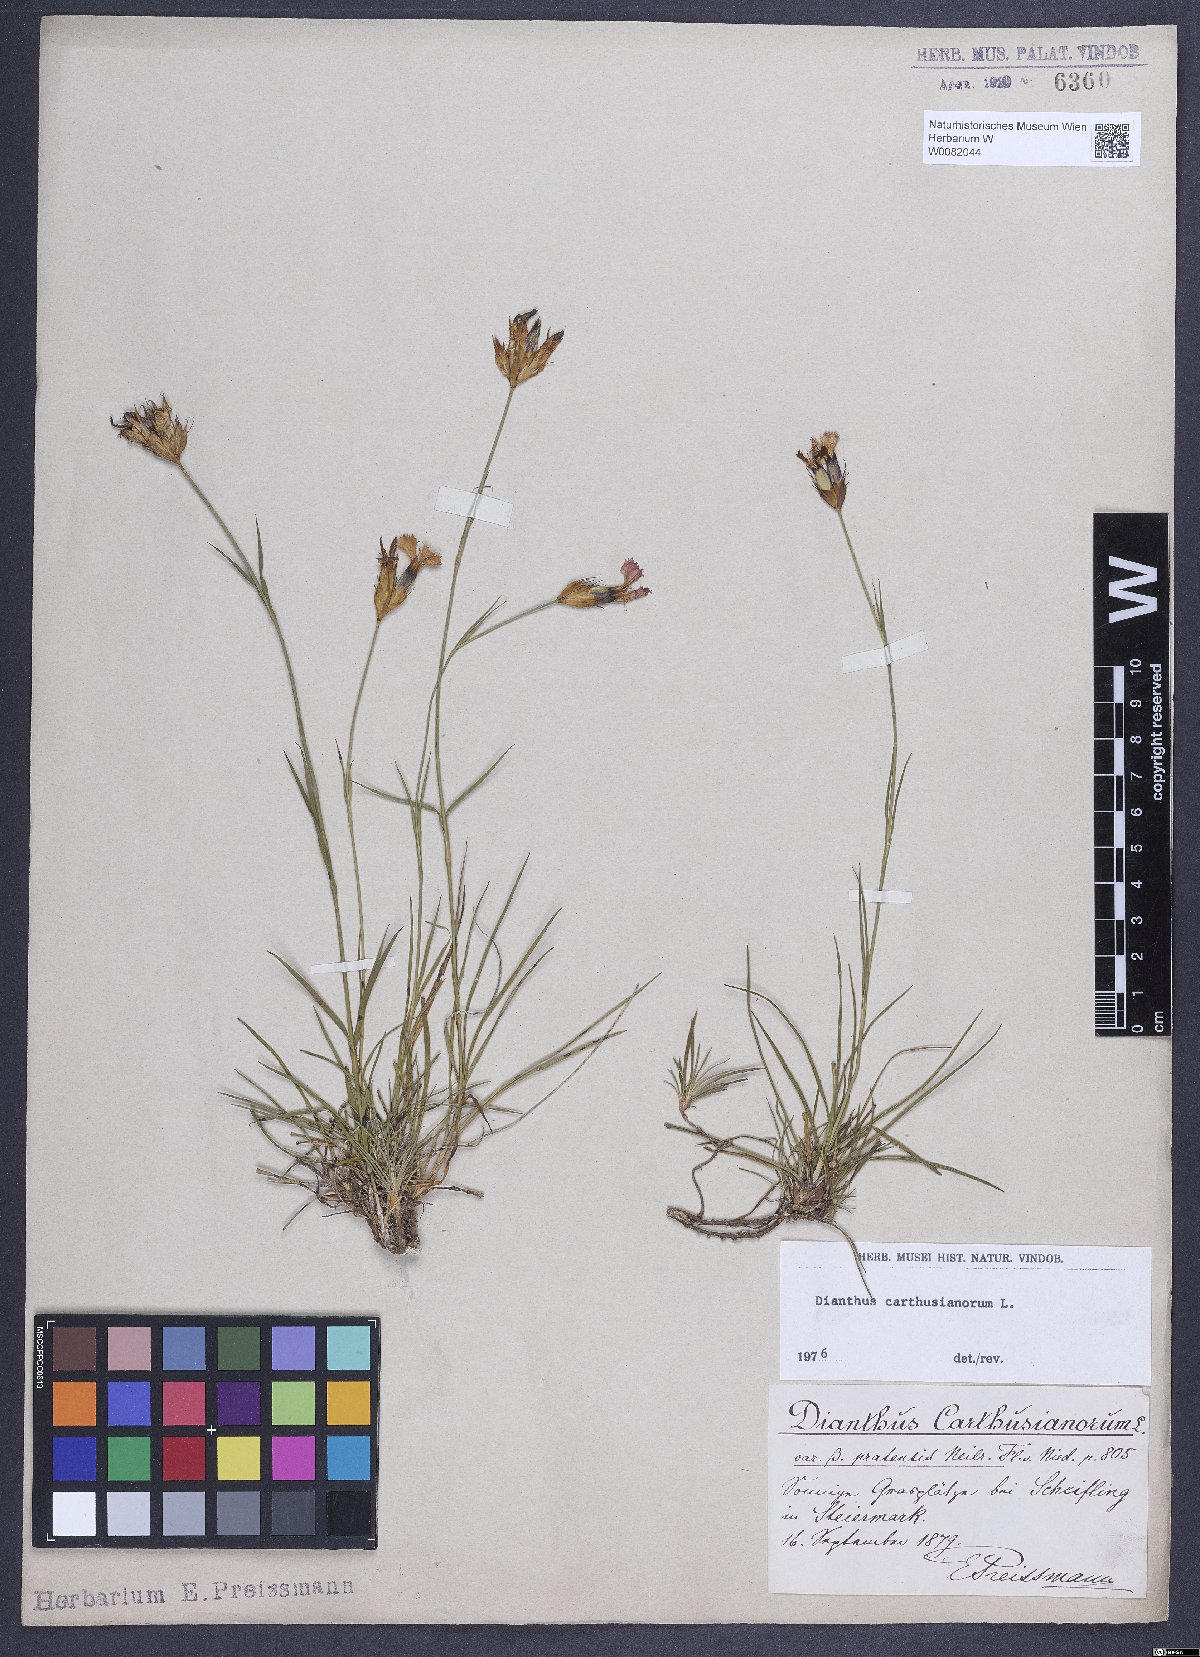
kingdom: Plantae
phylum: Tracheophyta
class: Magnoliopsida
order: Caryophyllales
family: Caryophyllaceae
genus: Dianthus
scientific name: Dianthus carthusianorum
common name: Carthusian pink
